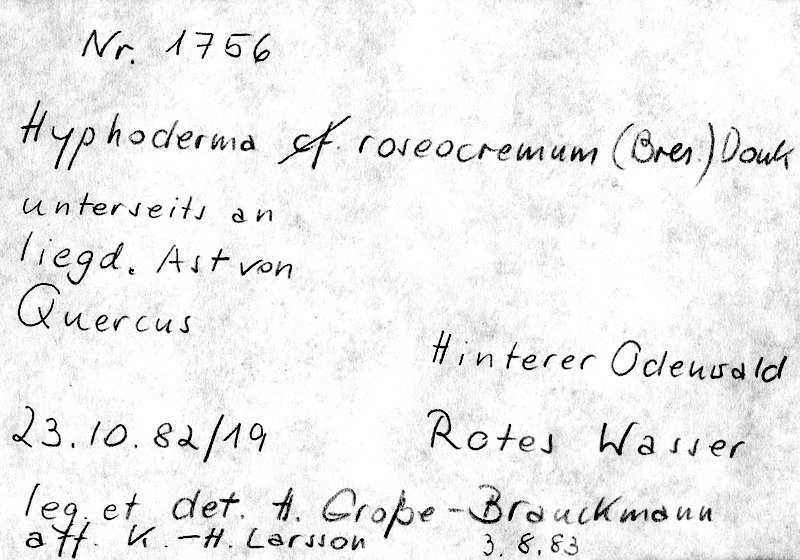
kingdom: Plantae
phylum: Tracheophyta
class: Magnoliopsida
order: Fagales
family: Fagaceae
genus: Quercus
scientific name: Quercus
